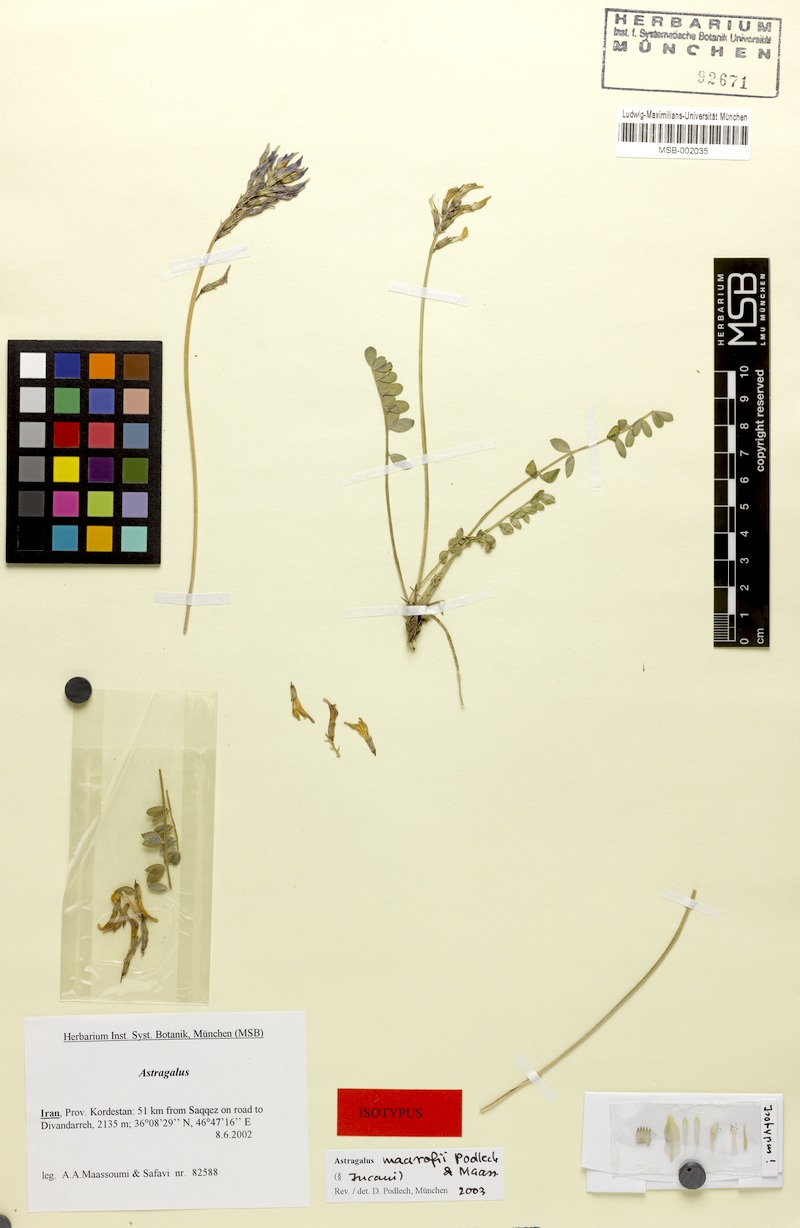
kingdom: Plantae
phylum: Tracheophyta
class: Magnoliopsida
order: Fabales
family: Fabaceae
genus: Astragalus
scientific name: Astragalus maarofii
